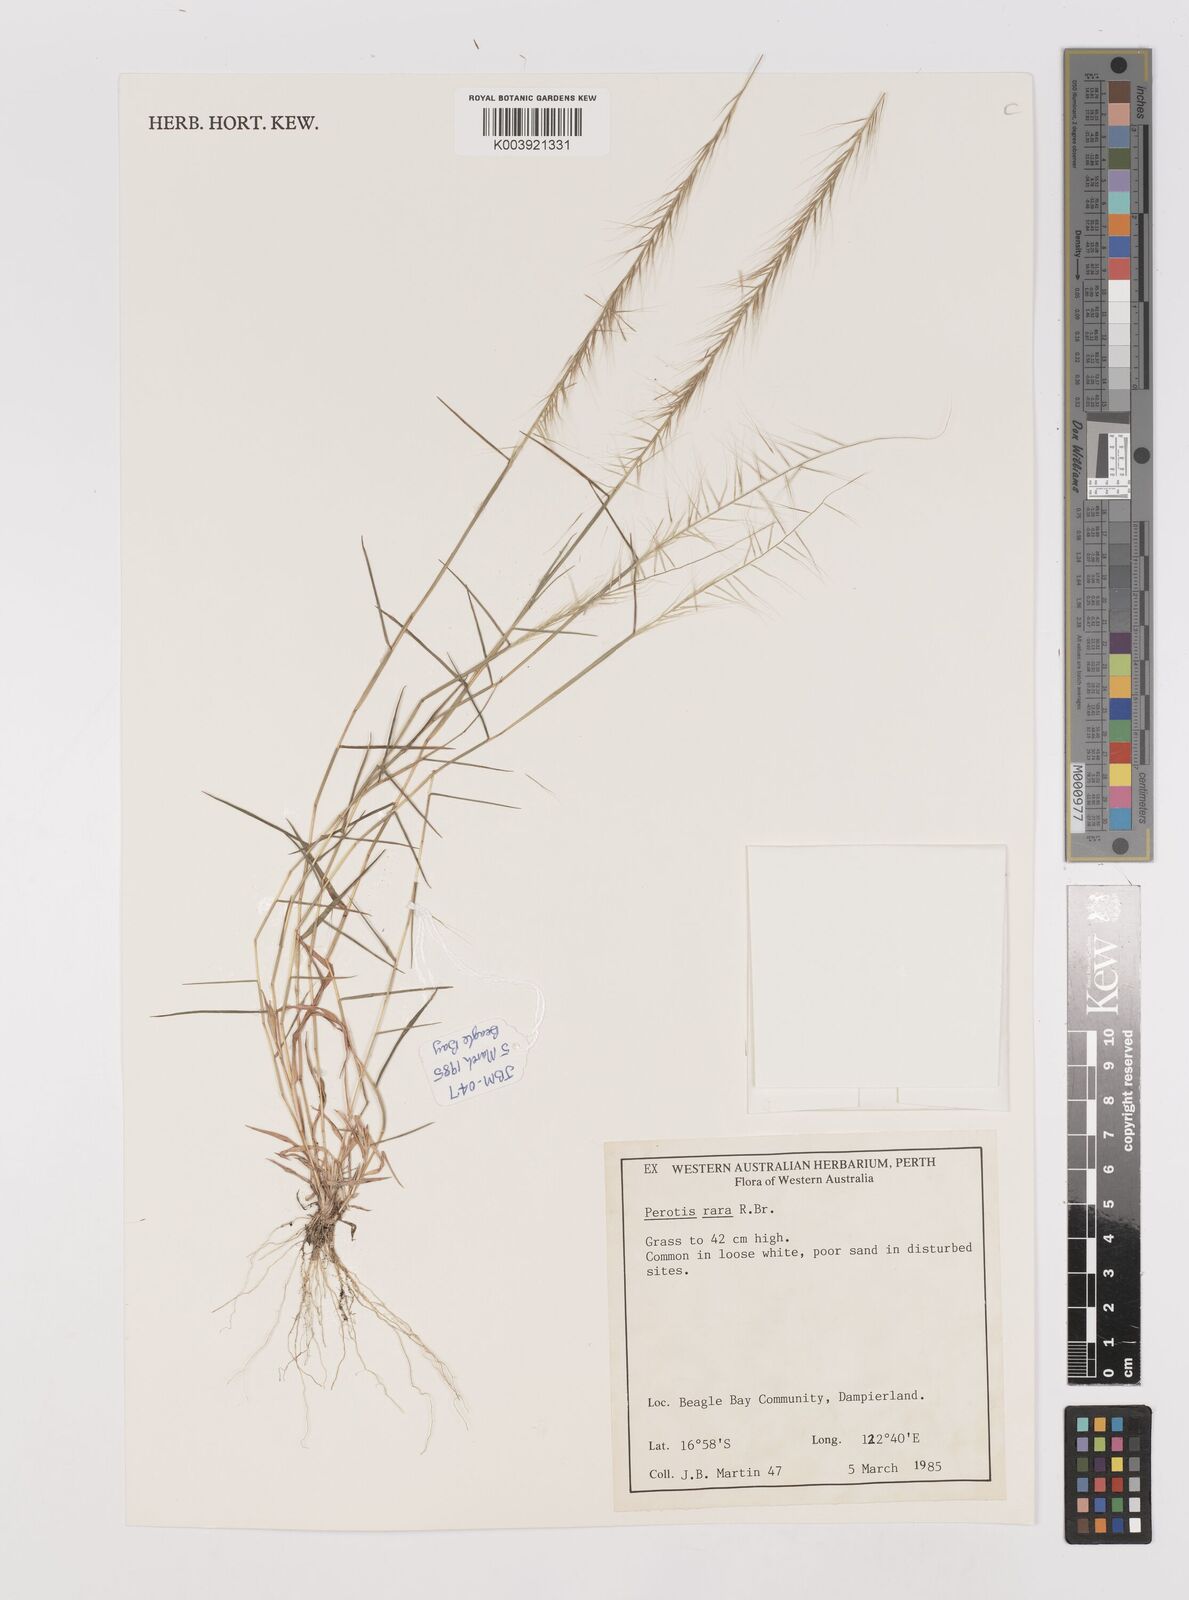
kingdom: Plantae
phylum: Tracheophyta
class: Liliopsida
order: Poales
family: Poaceae
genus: Perotis
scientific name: Perotis rara
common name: Comet grass
